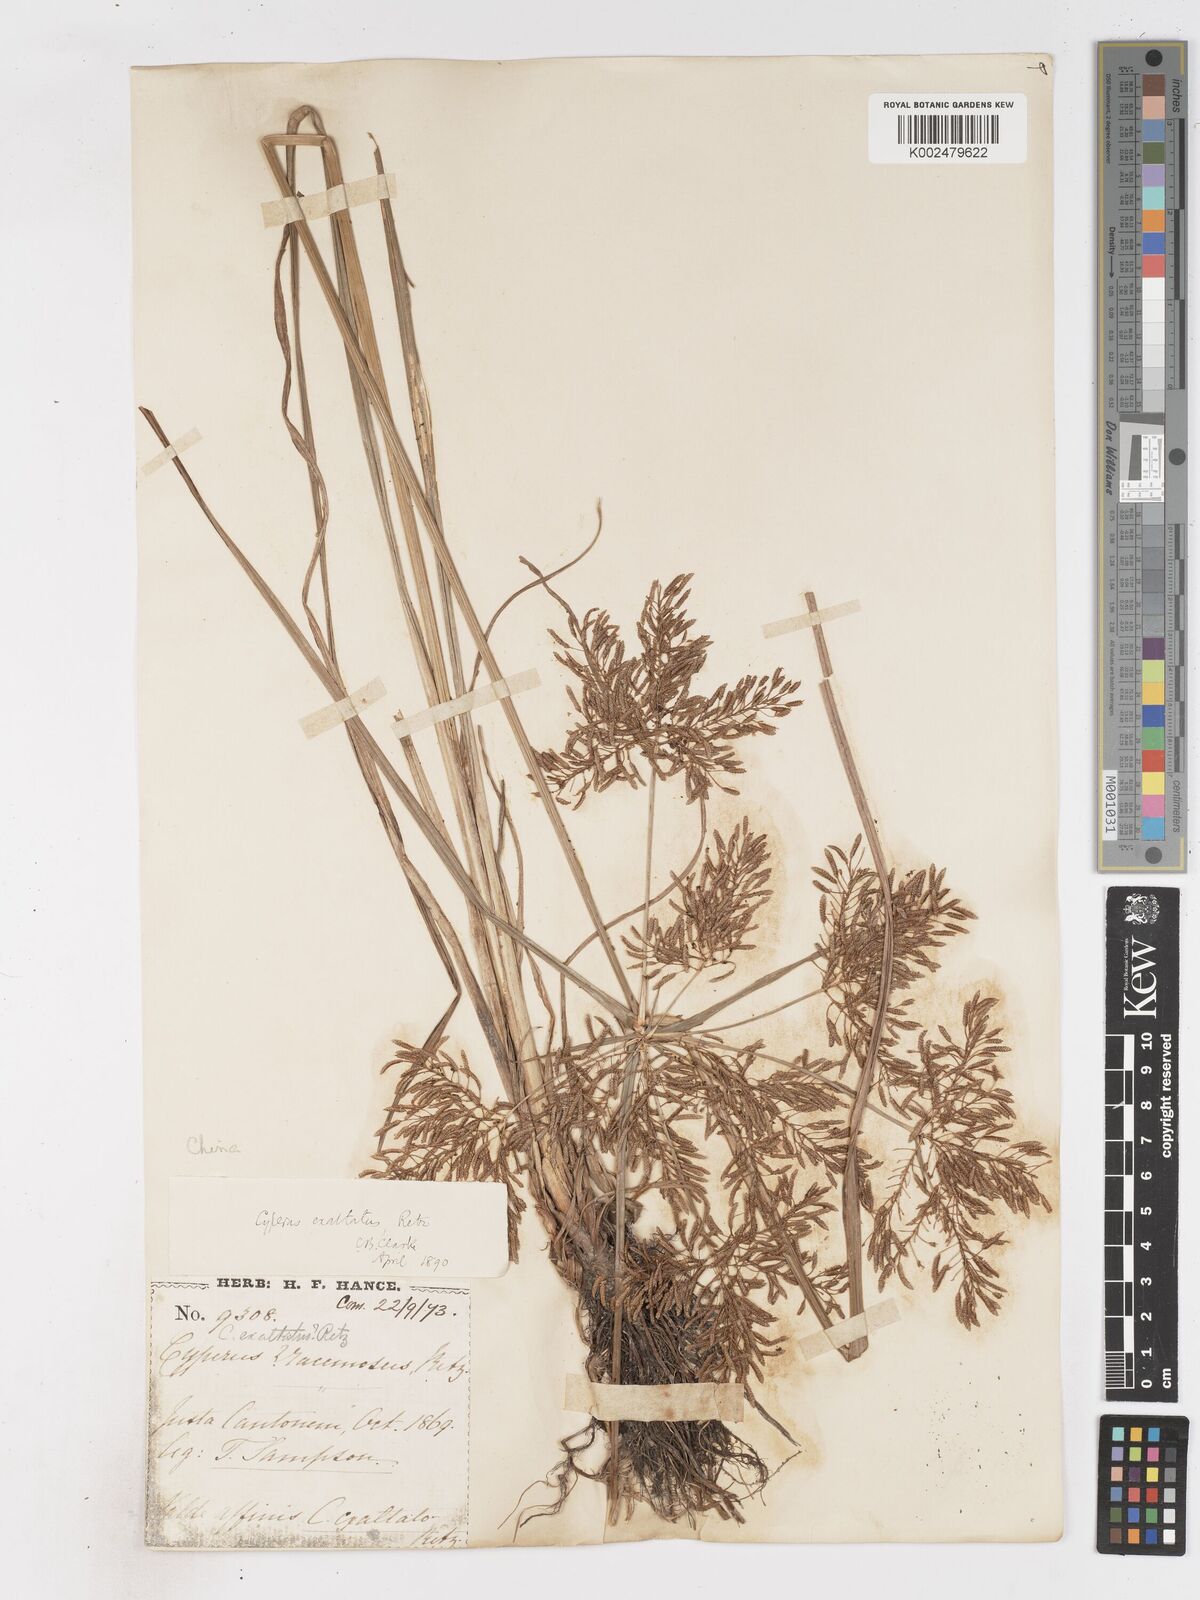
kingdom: Plantae
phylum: Tracheophyta
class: Liliopsida
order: Poales
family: Cyperaceae
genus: Cyperus
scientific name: Cyperus exaltatus
